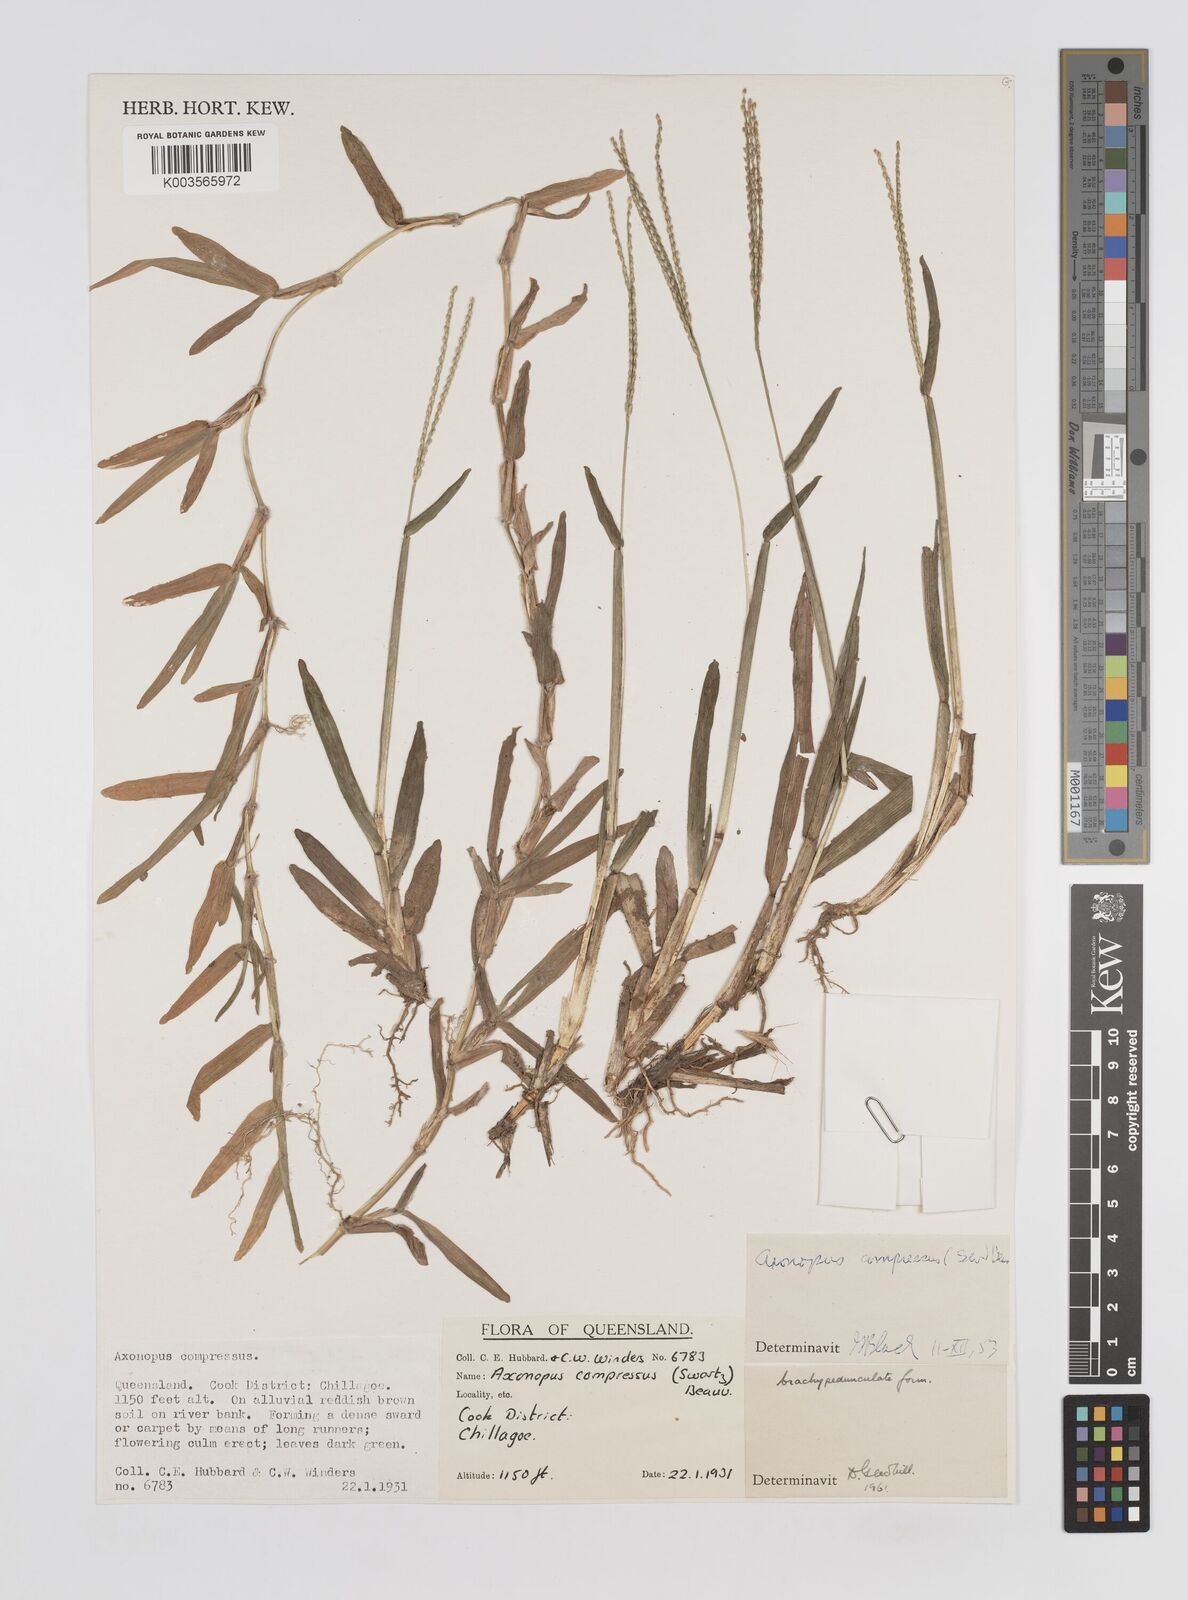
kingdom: Plantae
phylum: Tracheophyta
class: Liliopsida
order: Poales
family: Poaceae
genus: Axonopus
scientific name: Axonopus compressus
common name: American carpet grass
